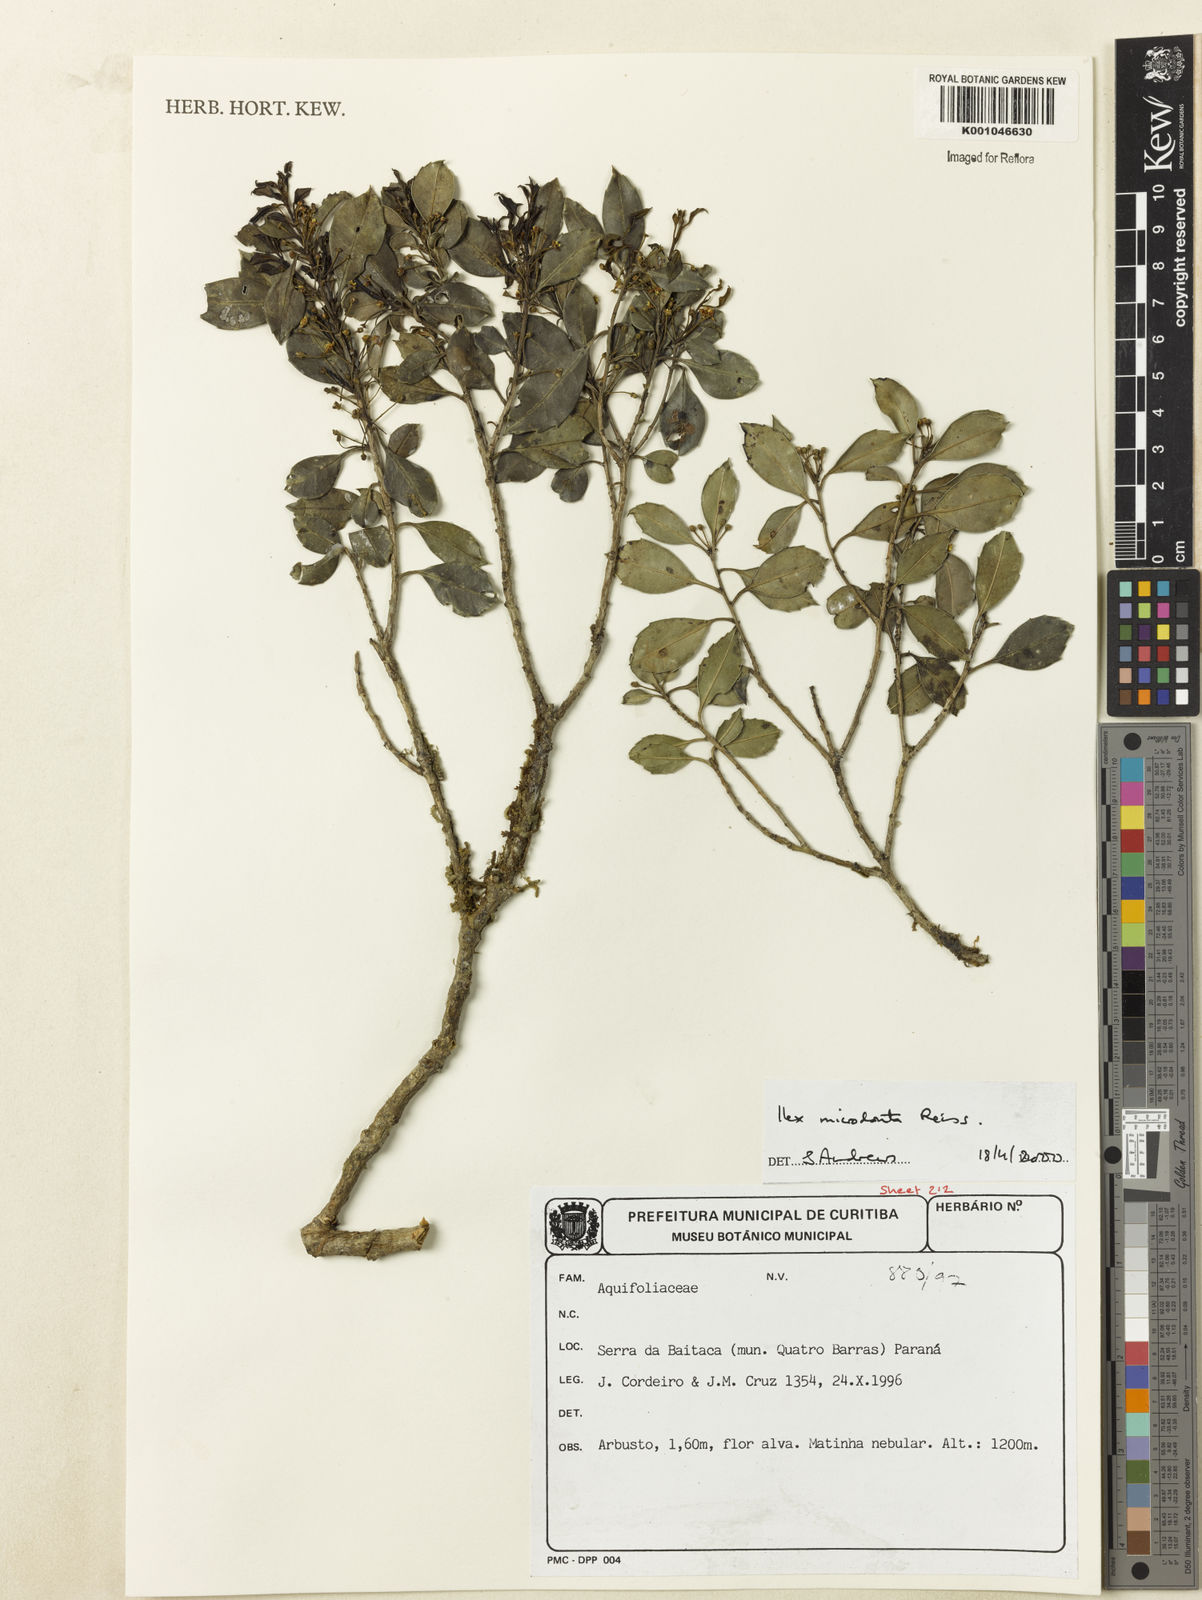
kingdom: Plantae
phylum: Tracheophyta
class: Magnoliopsida
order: Aquifoliales
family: Aquifoliaceae
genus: Ilex
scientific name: Ilex microdonta
